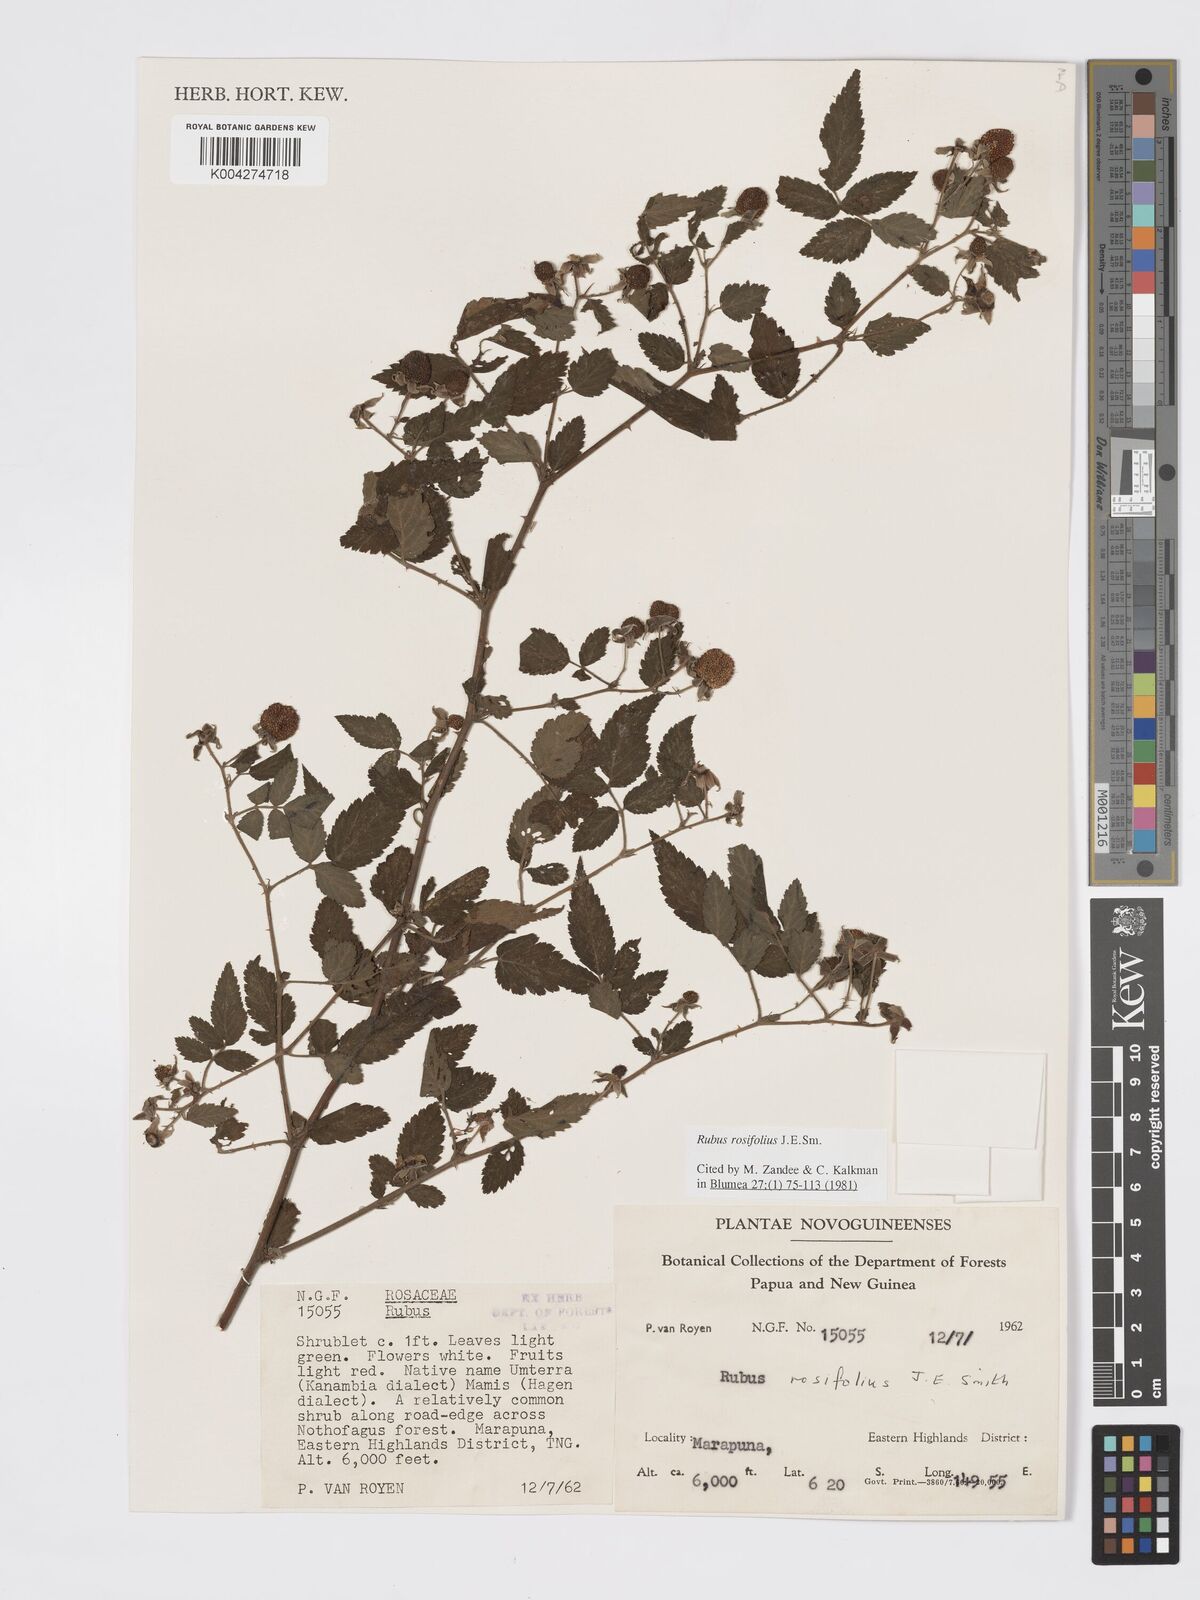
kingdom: Plantae
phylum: Tracheophyta
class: Magnoliopsida
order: Rosales
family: Rosaceae
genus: Rubus
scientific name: Rubus
